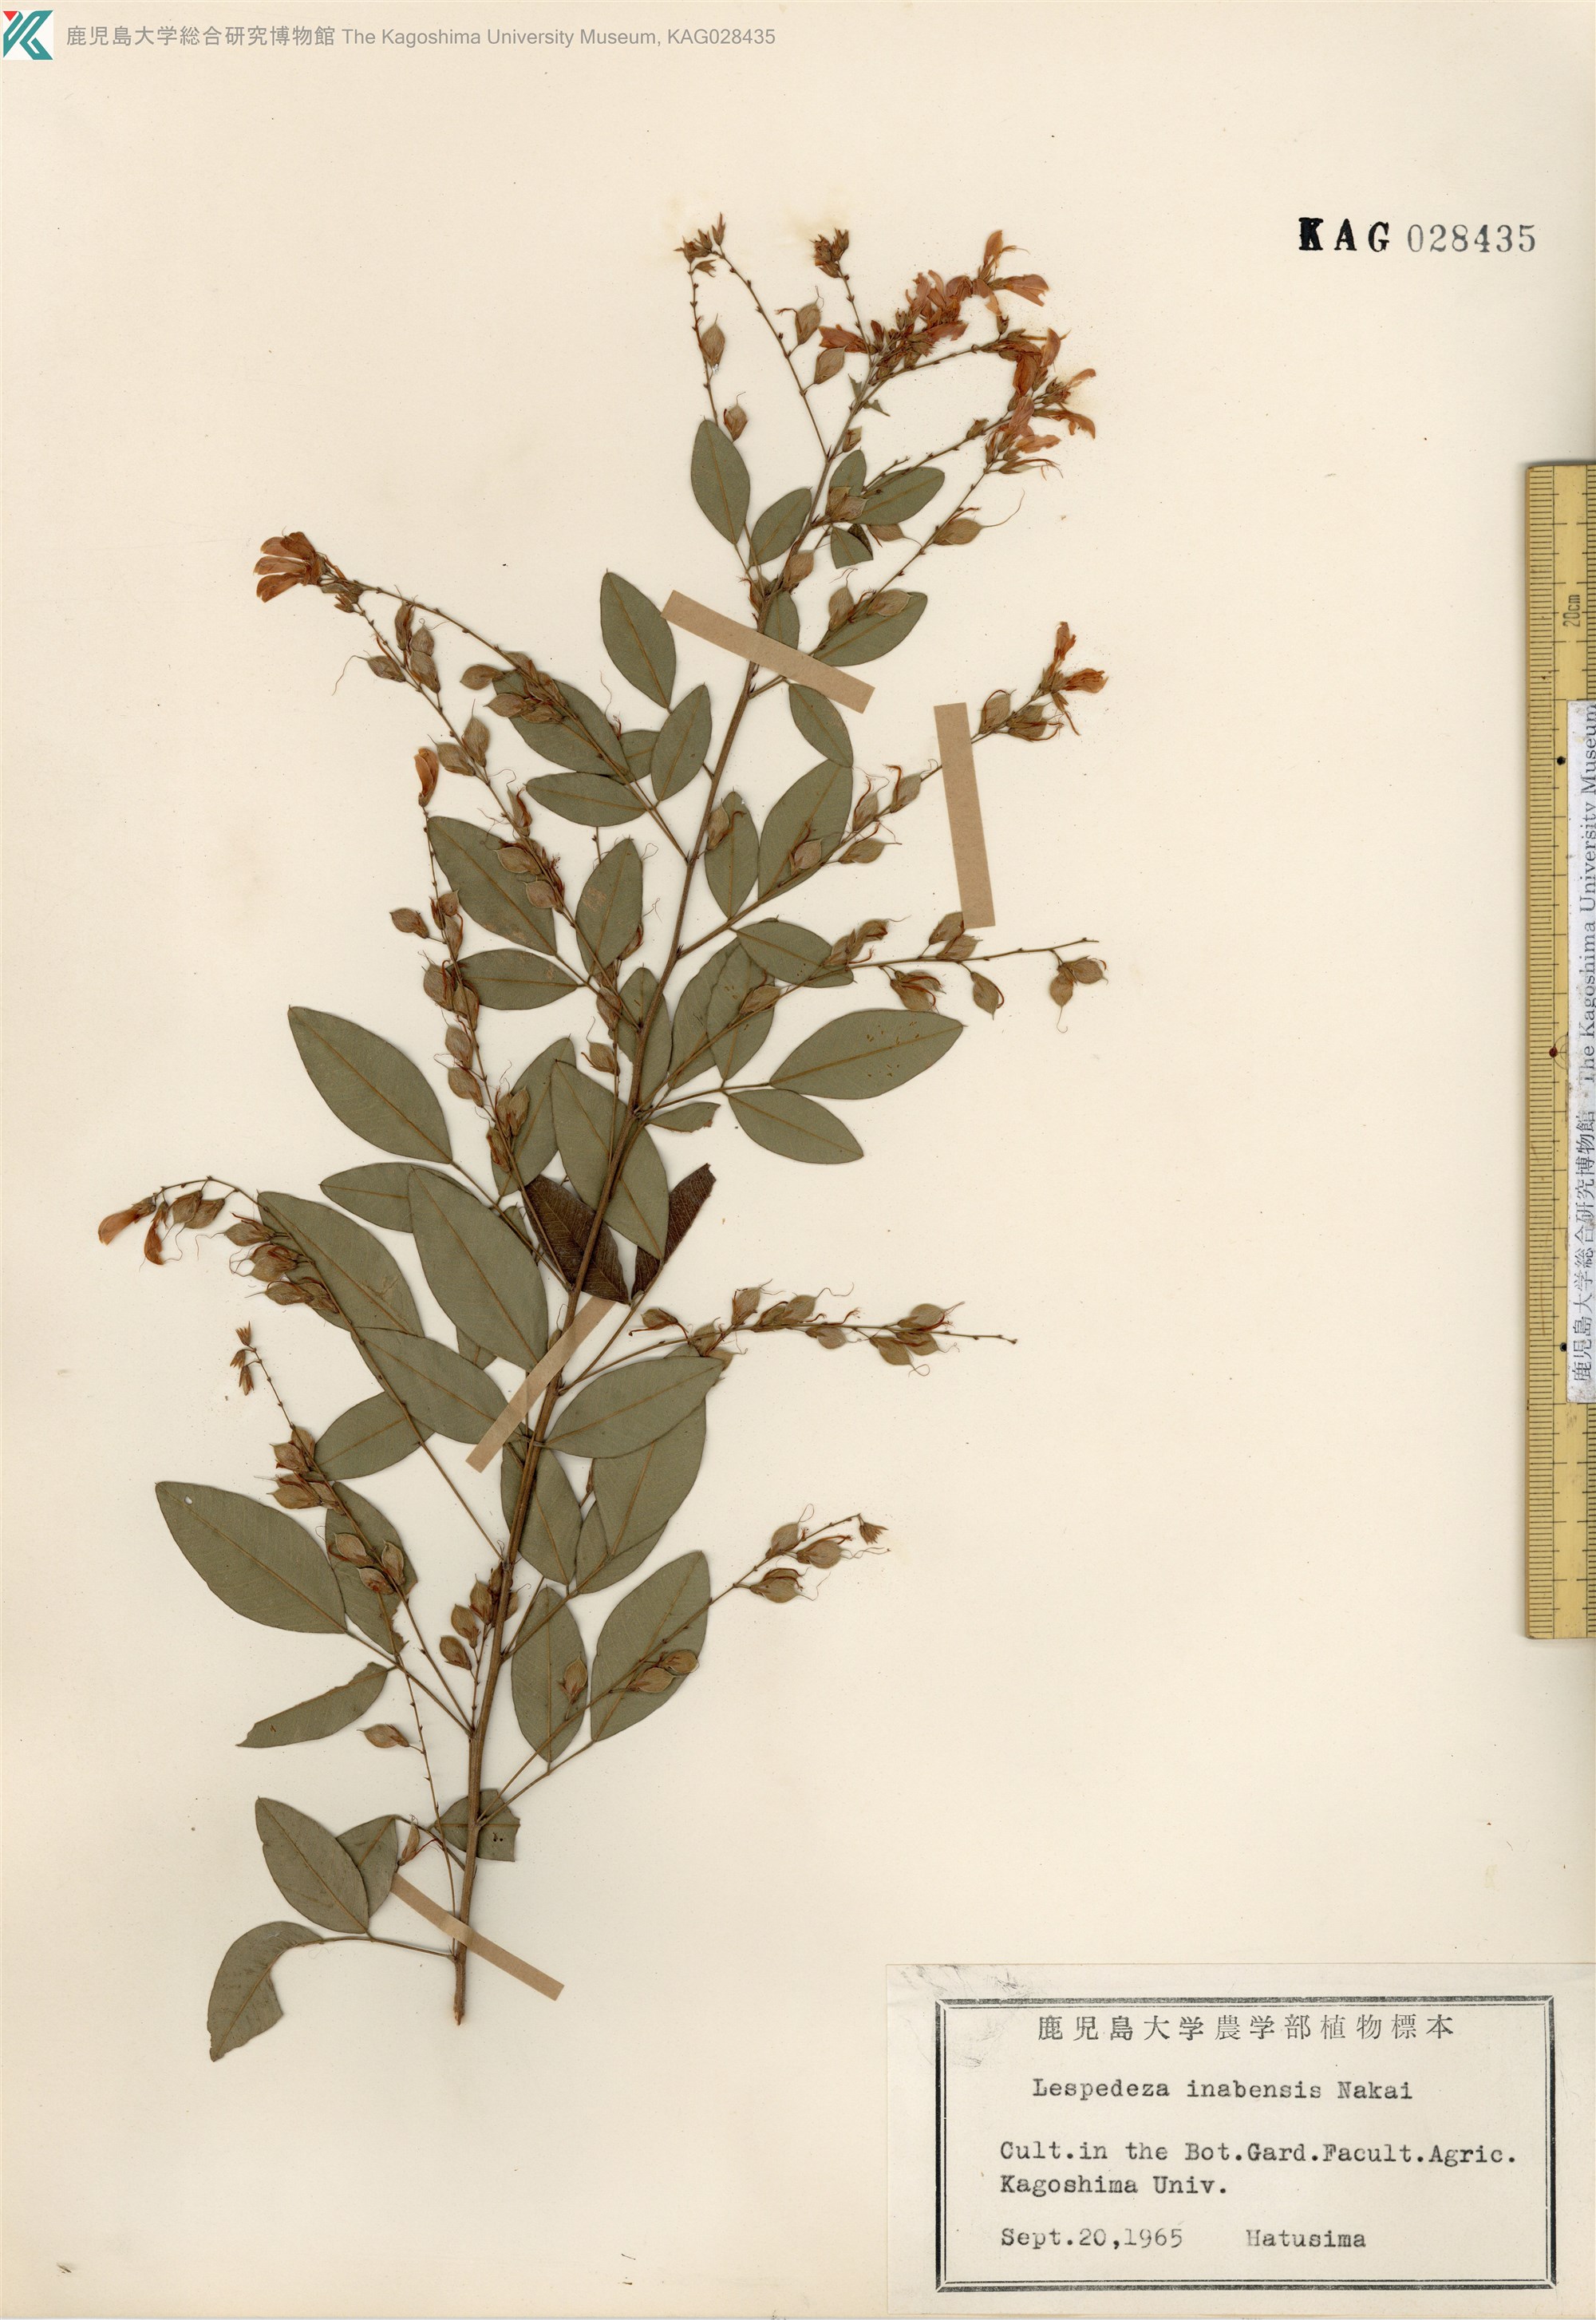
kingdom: Plantae
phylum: Tracheophyta
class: Magnoliopsida
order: Fabales
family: Fabaceae
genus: Lespedeza
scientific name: Lespedeza thunbergii
